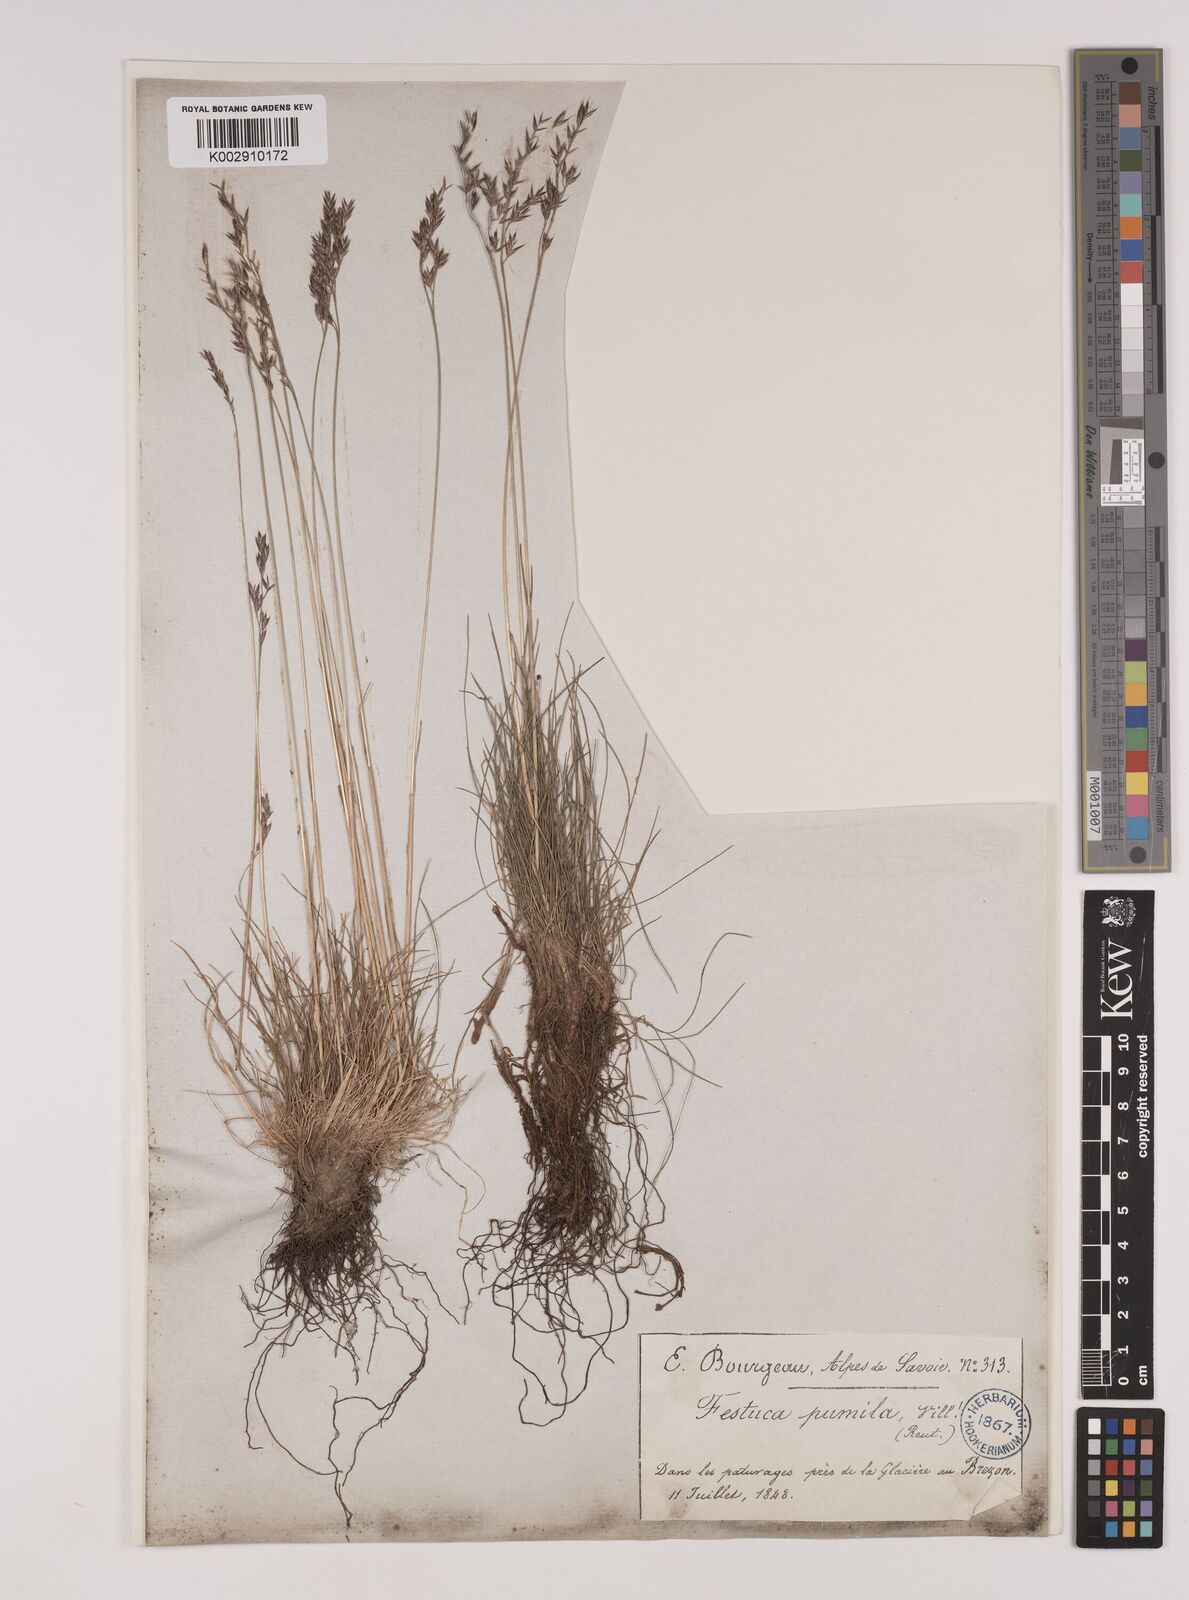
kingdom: Plantae
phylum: Tracheophyta
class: Liliopsida
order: Poales
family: Poaceae
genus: Festuca
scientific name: Festuca
